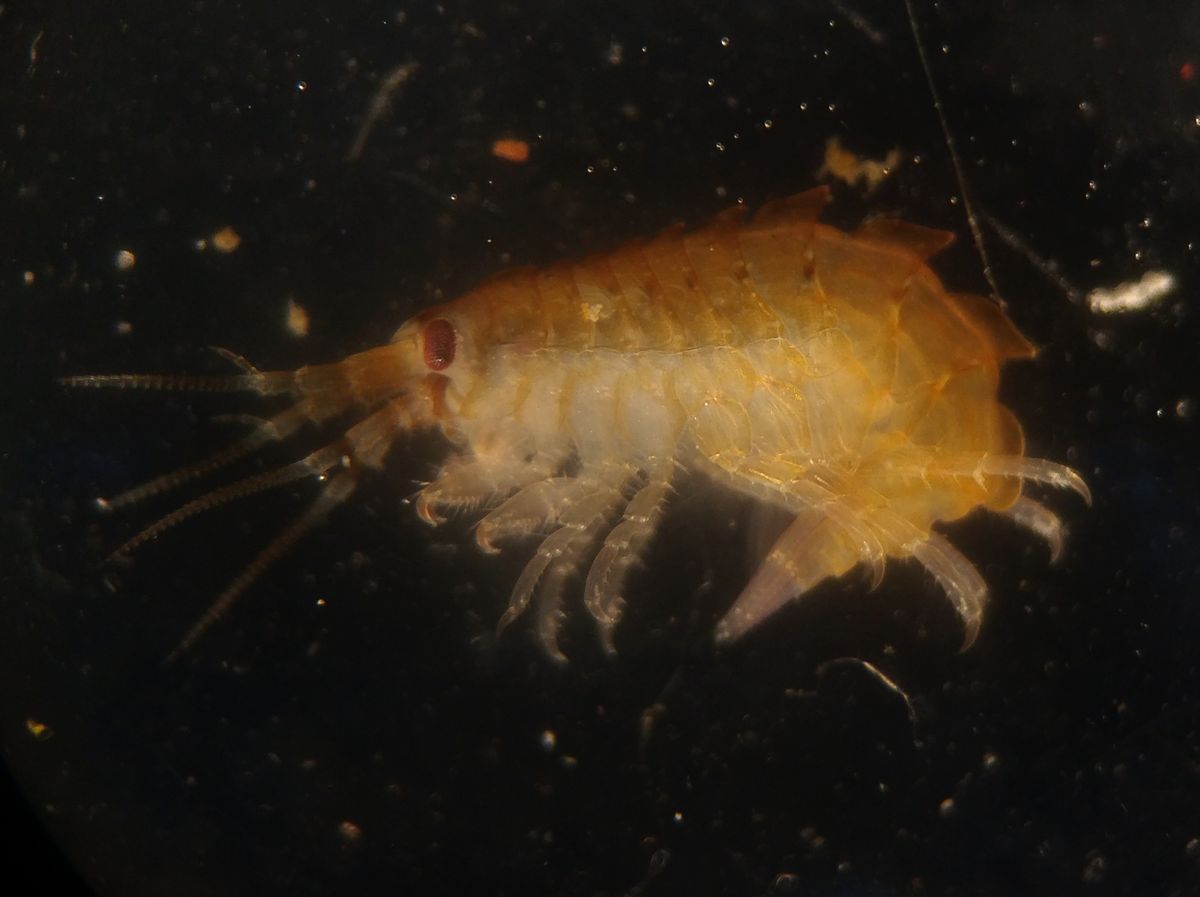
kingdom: Animalia
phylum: Arthropoda
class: Malacostraca
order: Amphipoda
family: Gammarellidae
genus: Gammarellus
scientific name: Gammarellus homari
